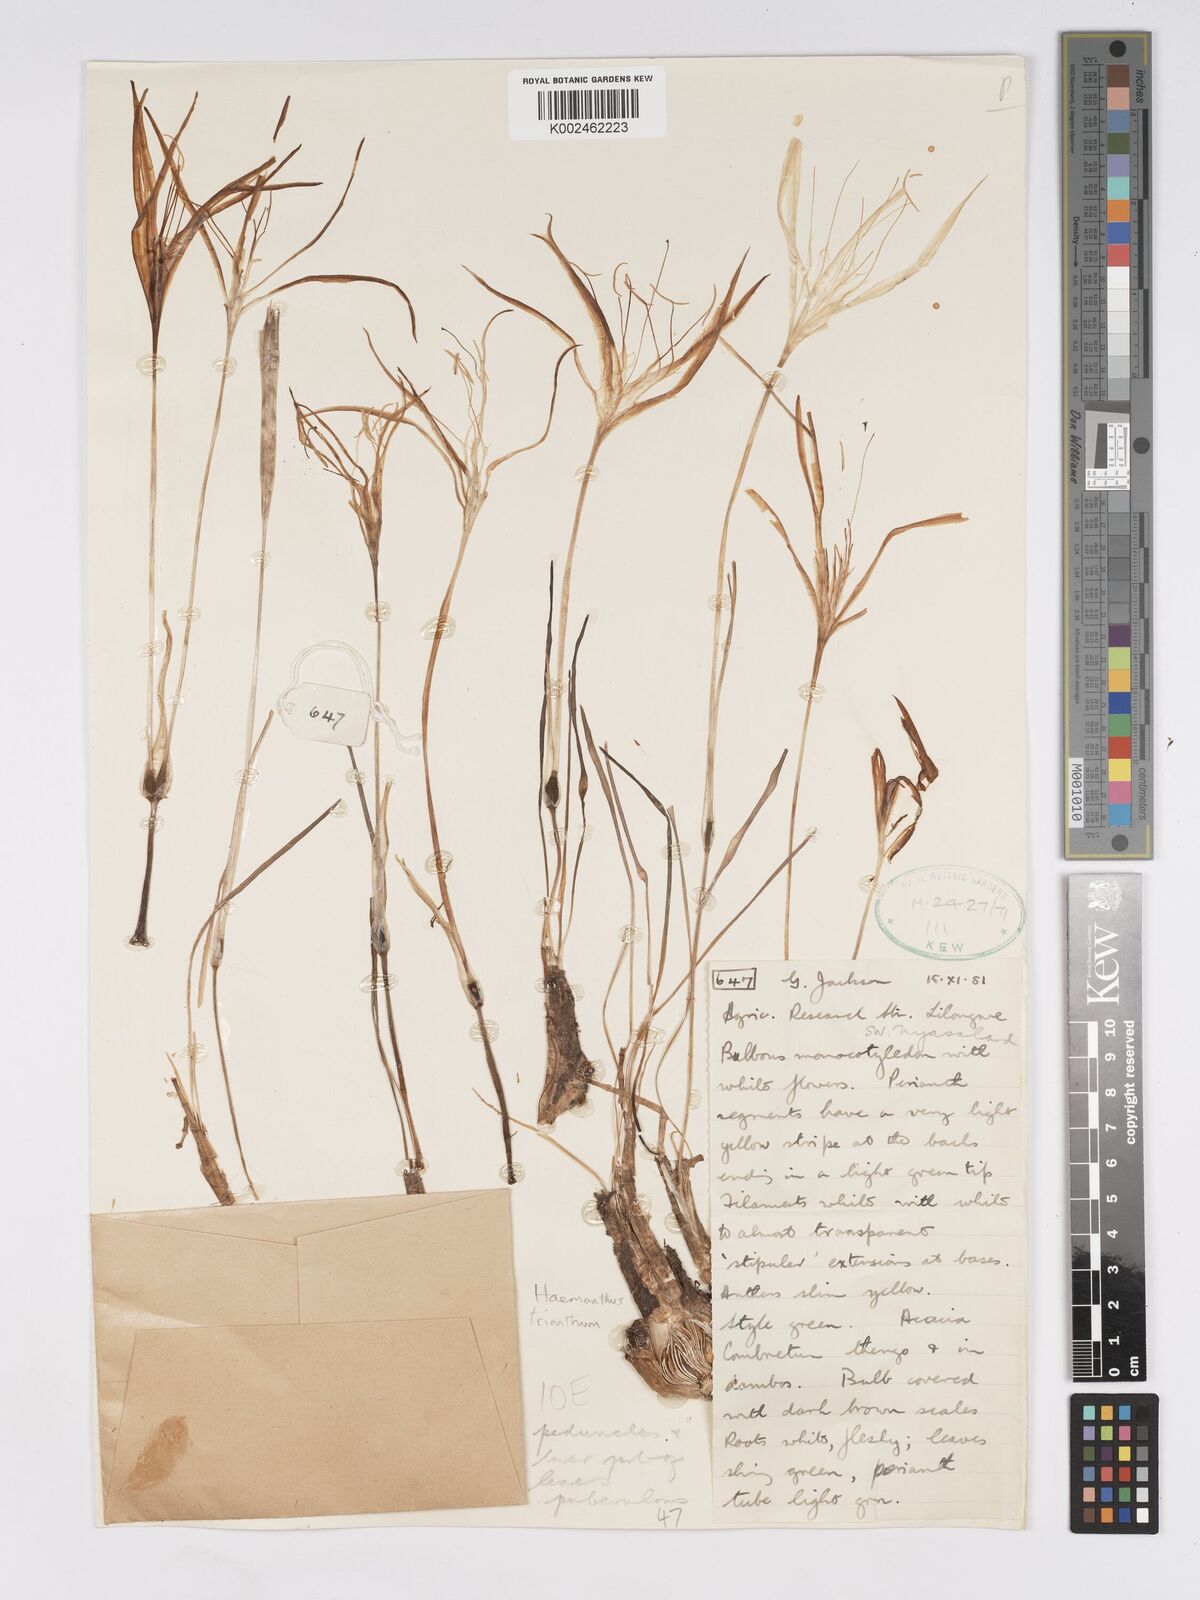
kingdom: Plantae
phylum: Tracheophyta
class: Liliopsida
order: Asparagales
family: Amaryllidaceae
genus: Pancratium
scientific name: Pancratium parvicoronatum
